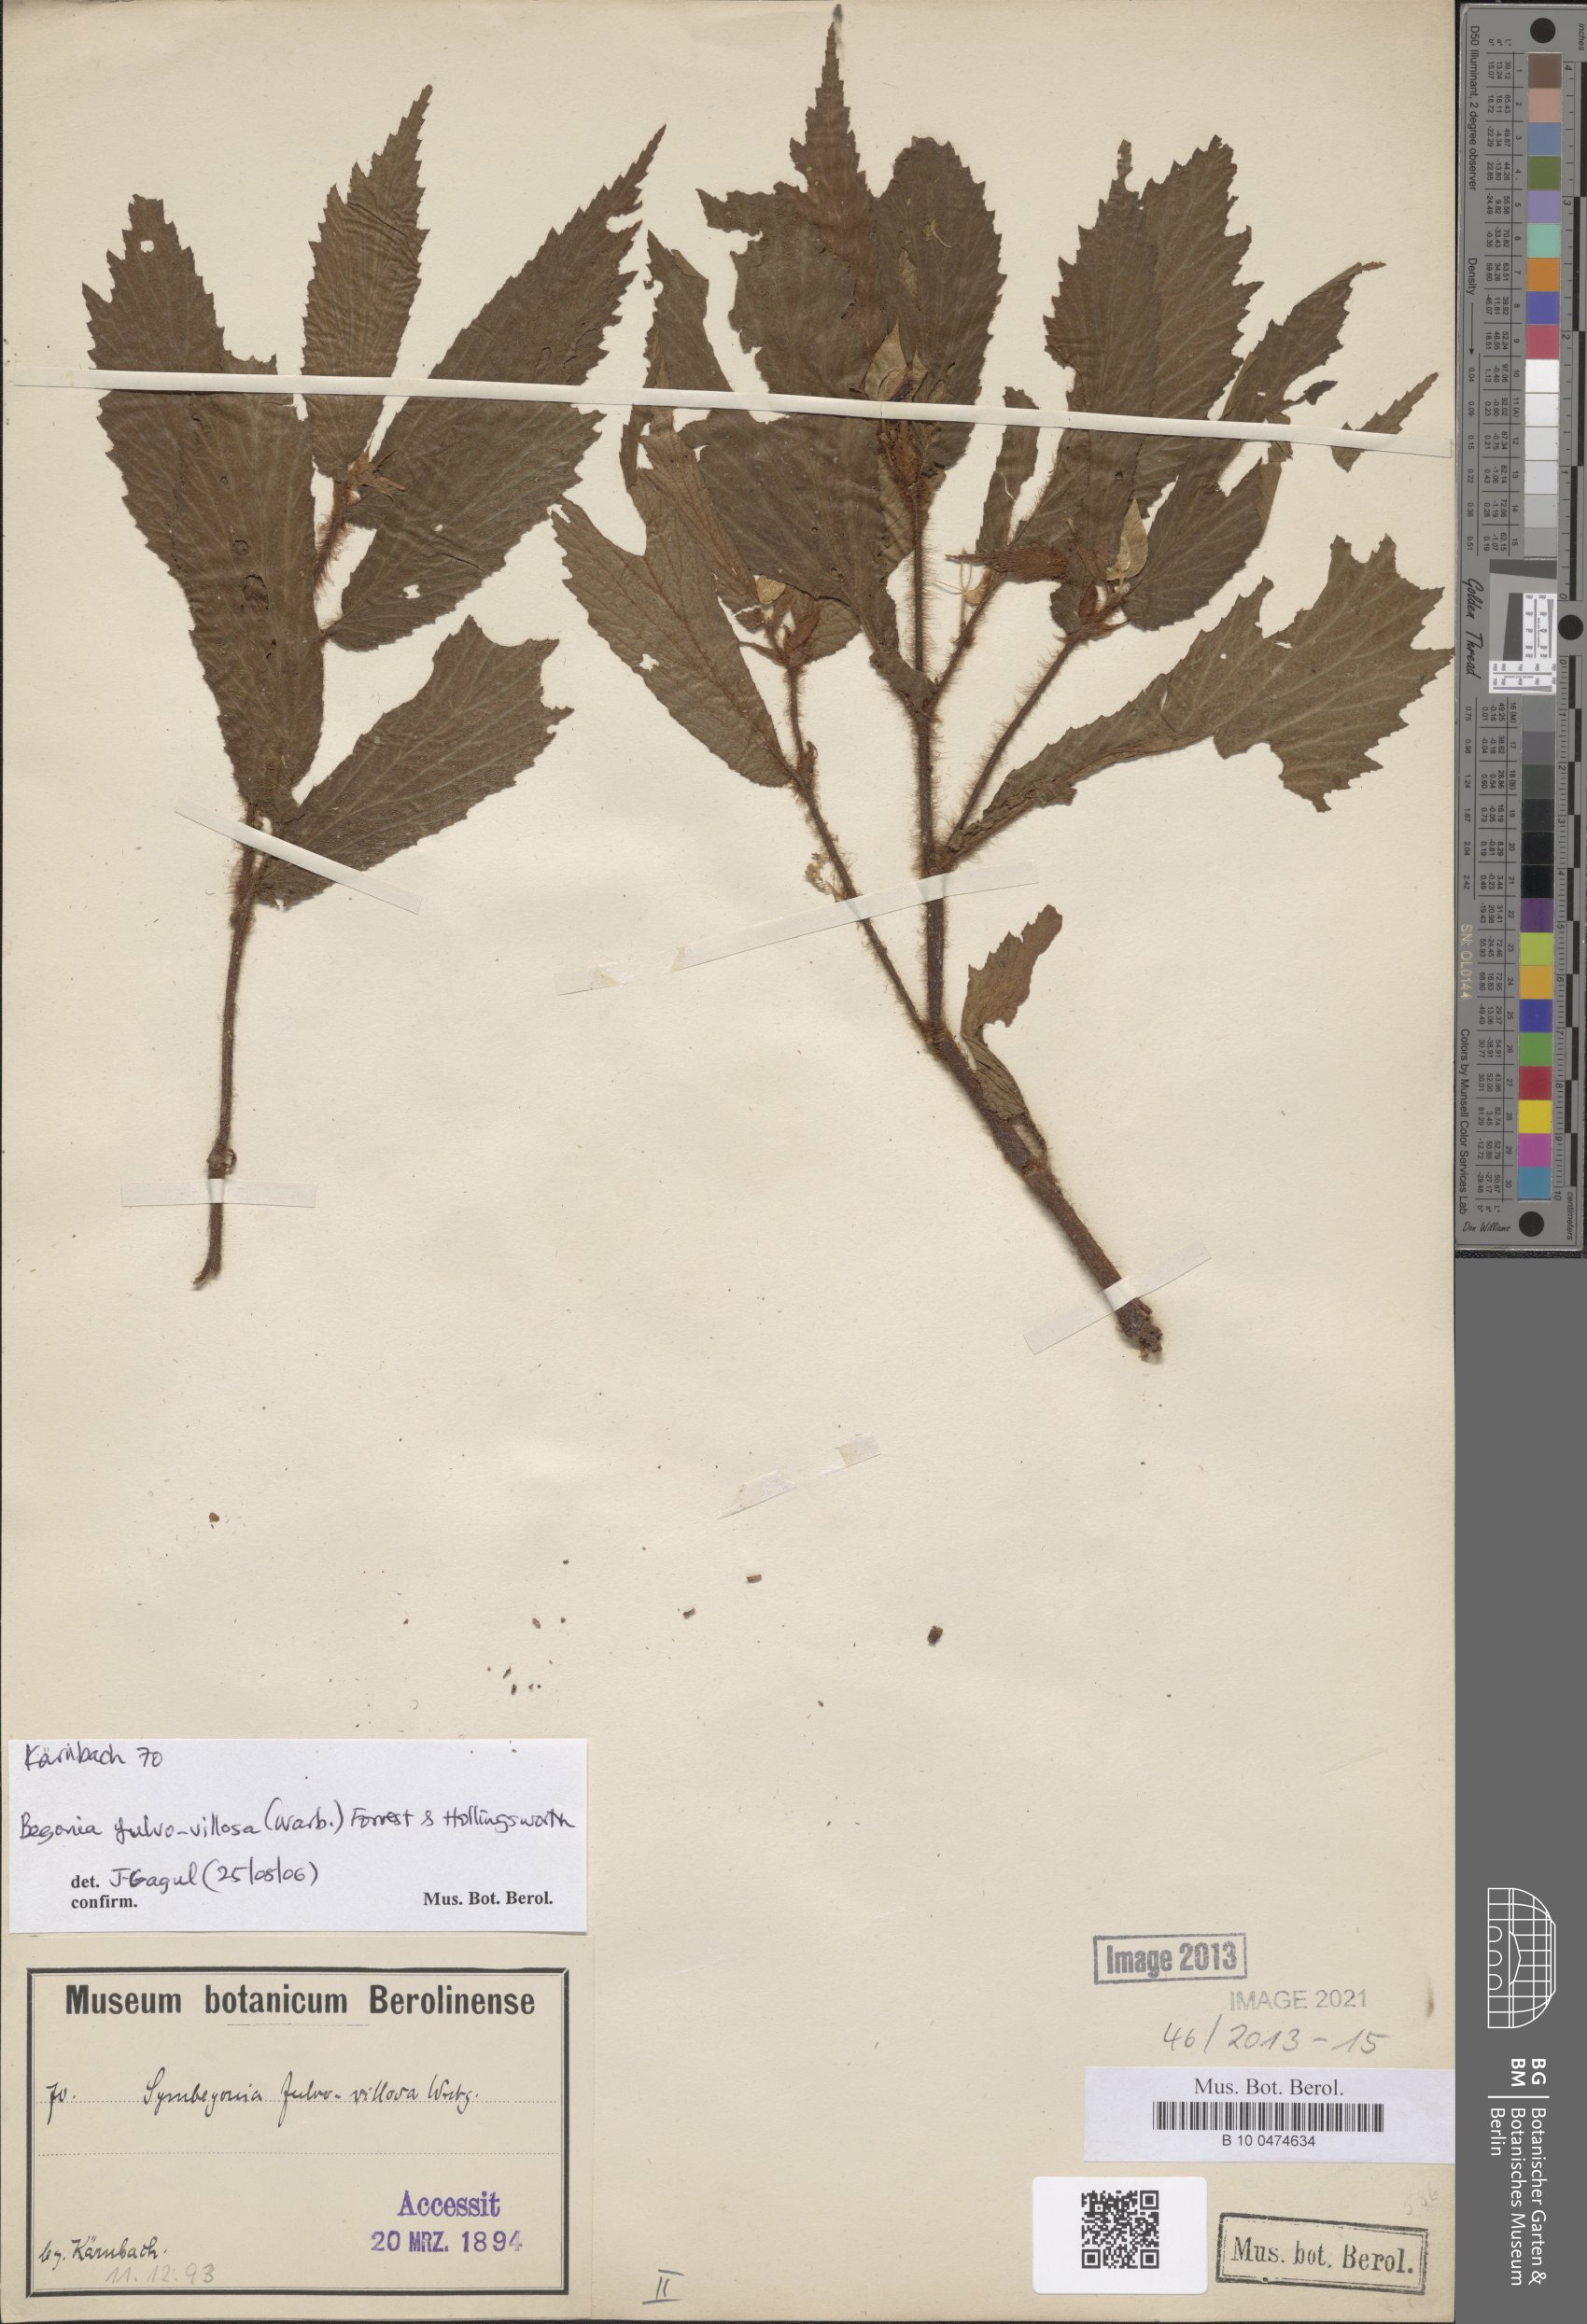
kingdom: Plantae
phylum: Tracheophyta
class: Magnoliopsida
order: Cucurbitales
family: Begoniaceae
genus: Begonia
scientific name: Begonia fulvovillosa
